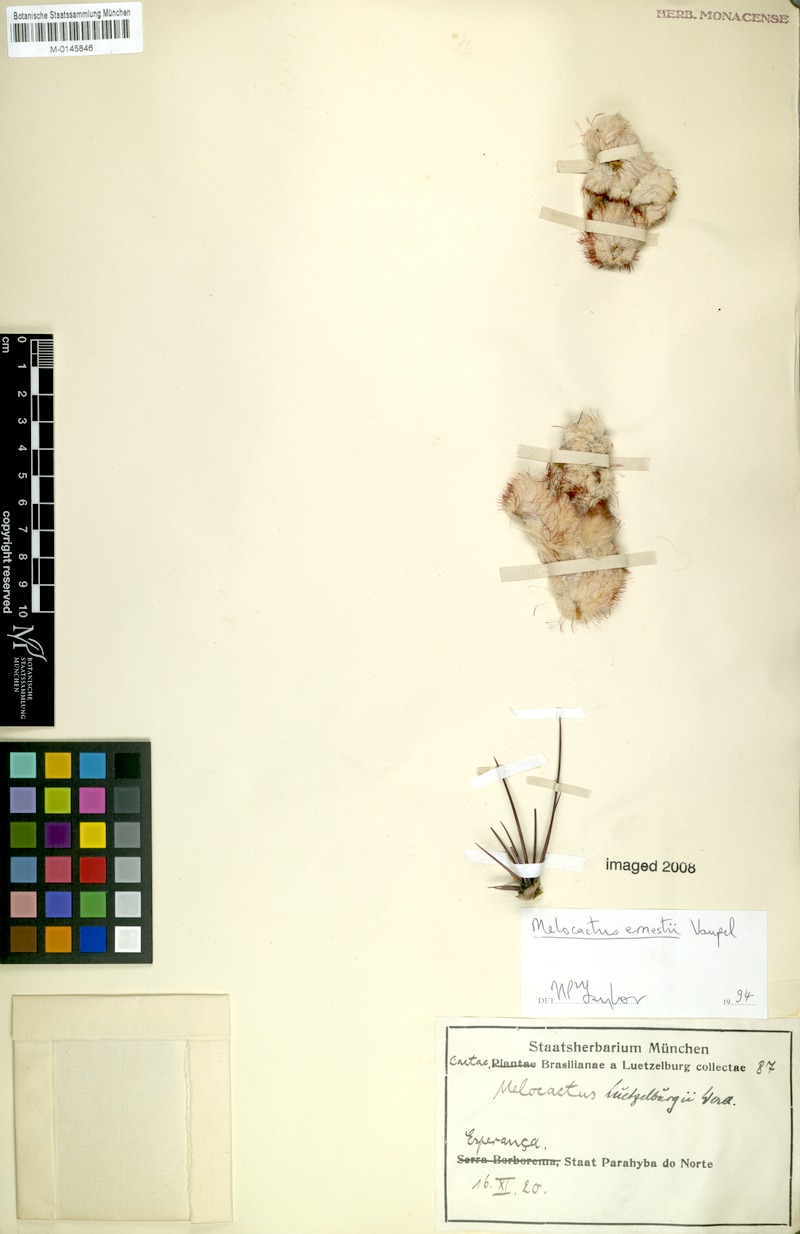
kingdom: Plantae
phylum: Tracheophyta
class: Magnoliopsida
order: Caryophyllales
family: Cactaceae
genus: Melocactus
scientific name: Melocactus ernestii
